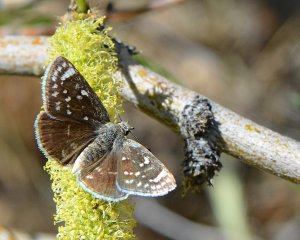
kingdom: Animalia
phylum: Arthropoda
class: Insecta
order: Lepidoptera
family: Hesperiidae
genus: Pholisora
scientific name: Pholisora libya
